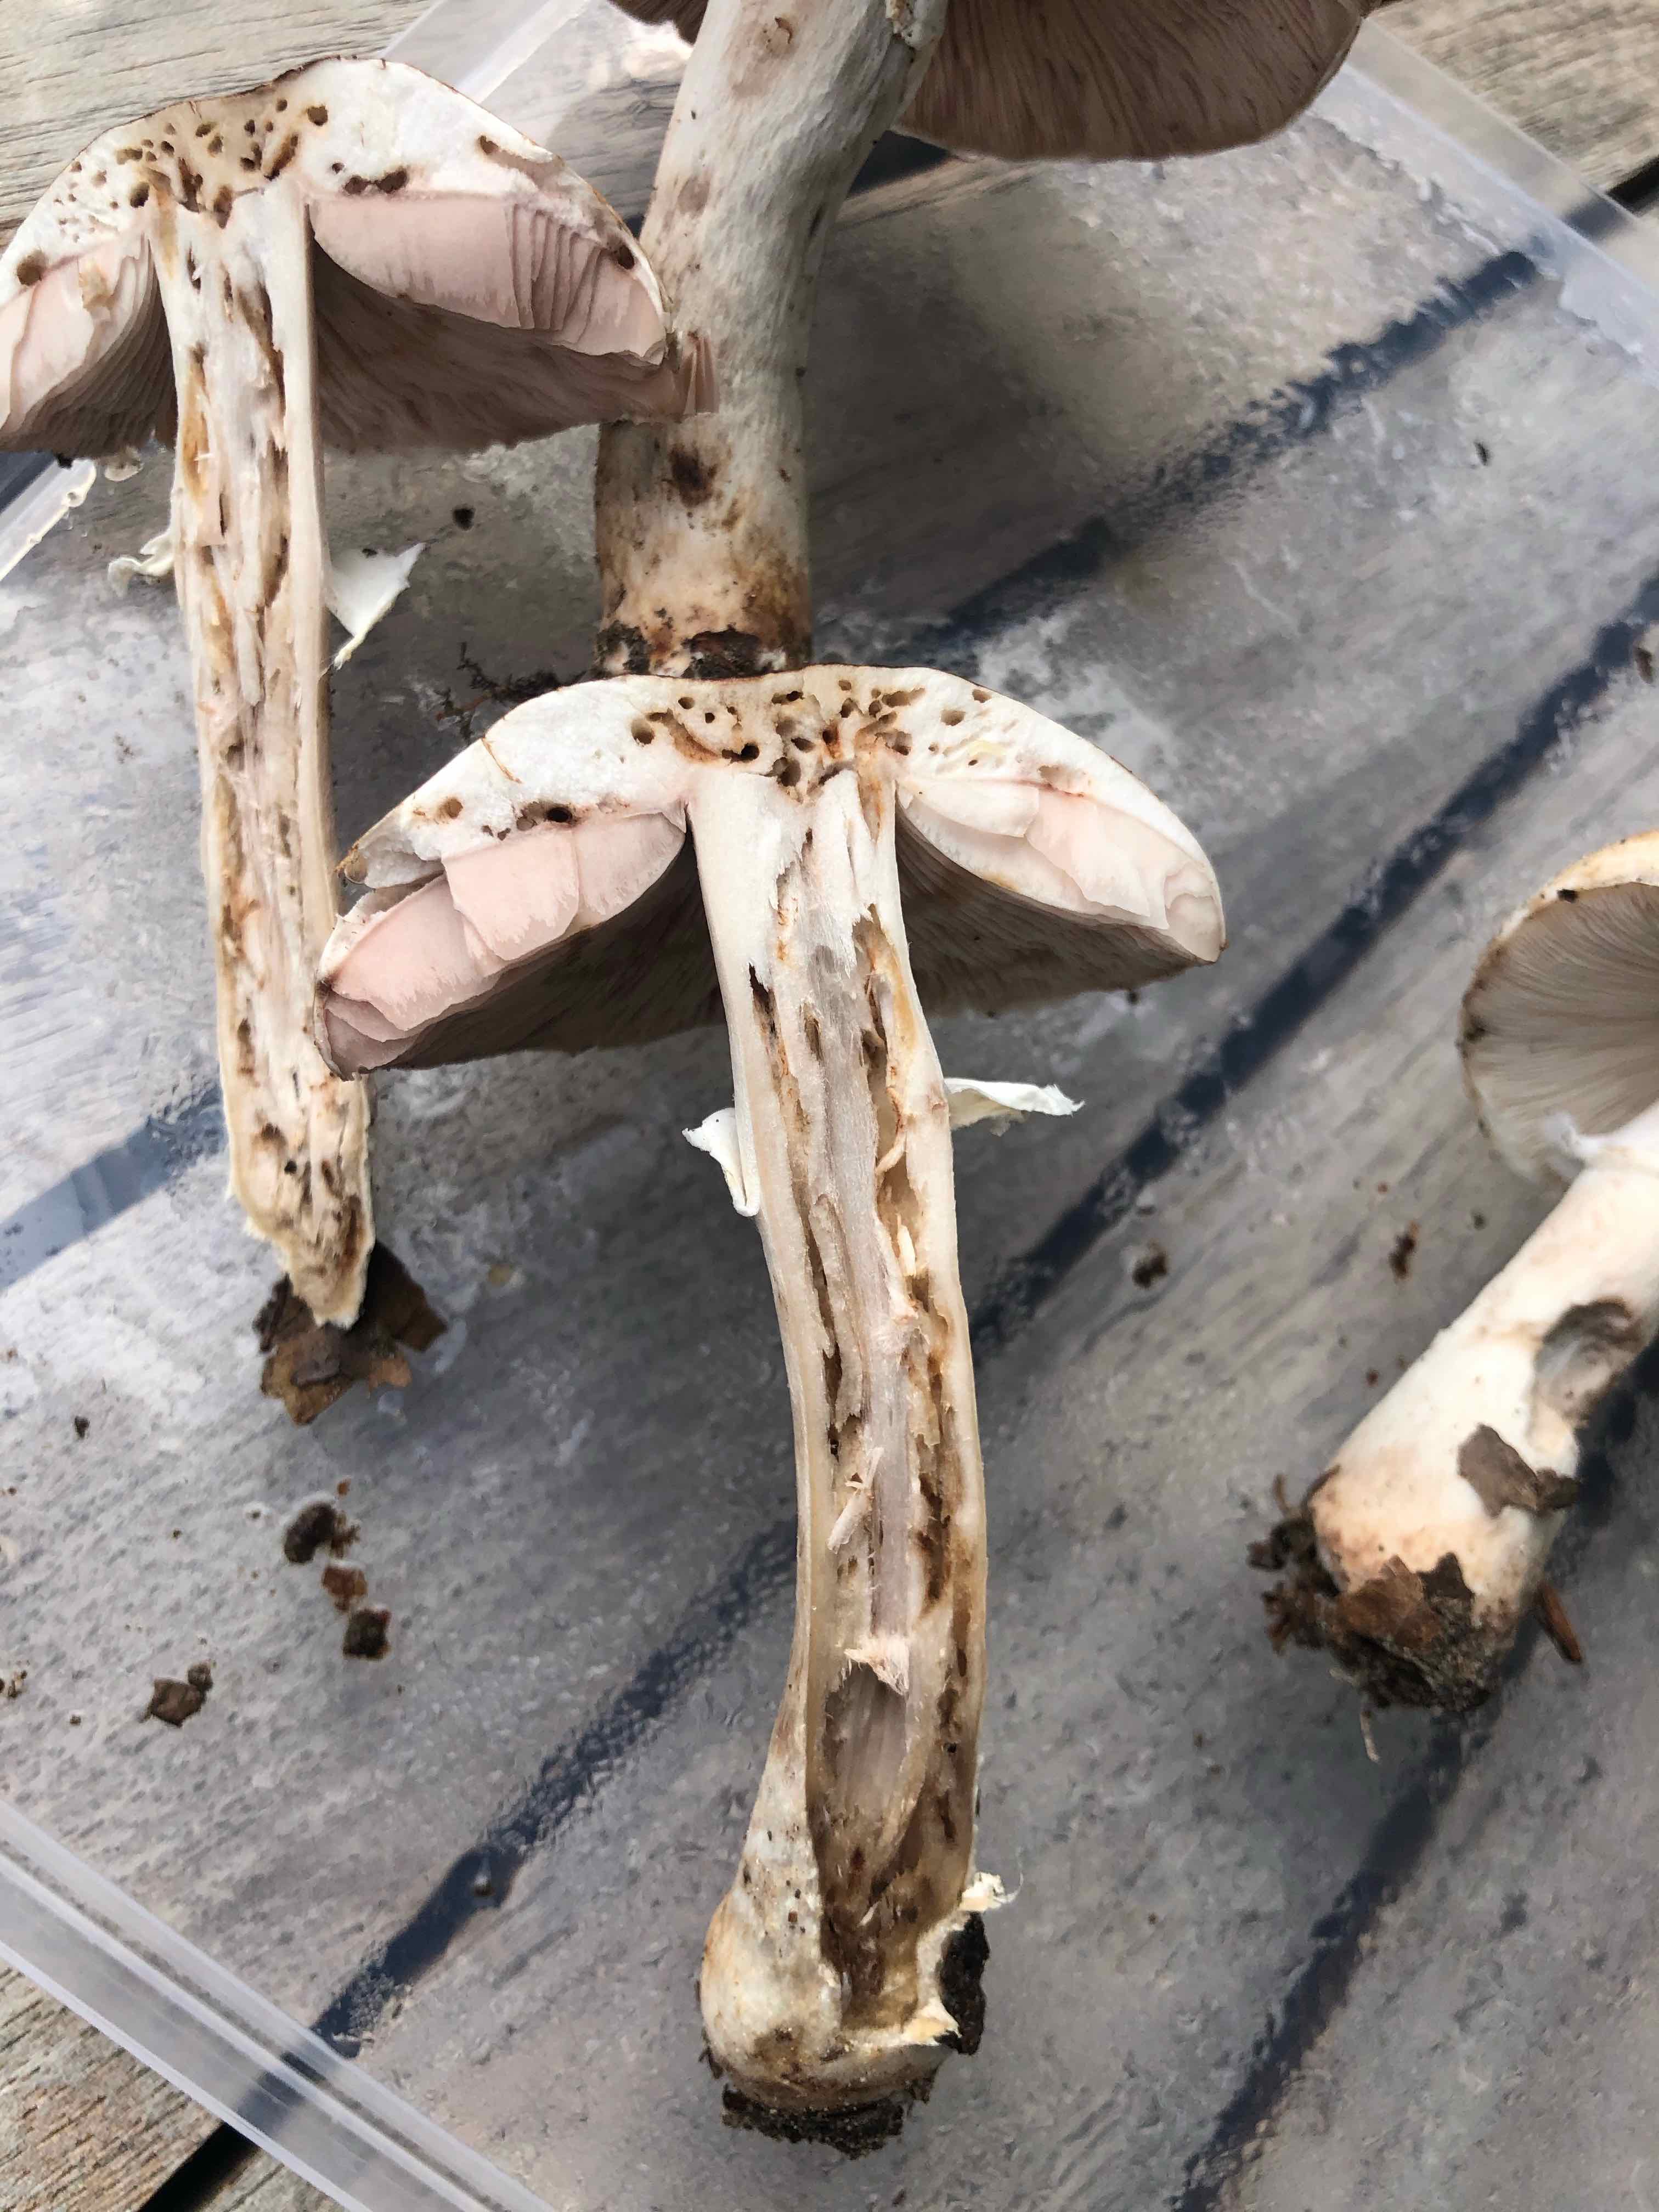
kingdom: Fungi
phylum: Basidiomycota
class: Agaricomycetes
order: Agaricales
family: Agaricaceae
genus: Agaricus
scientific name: Agaricus impudicus
